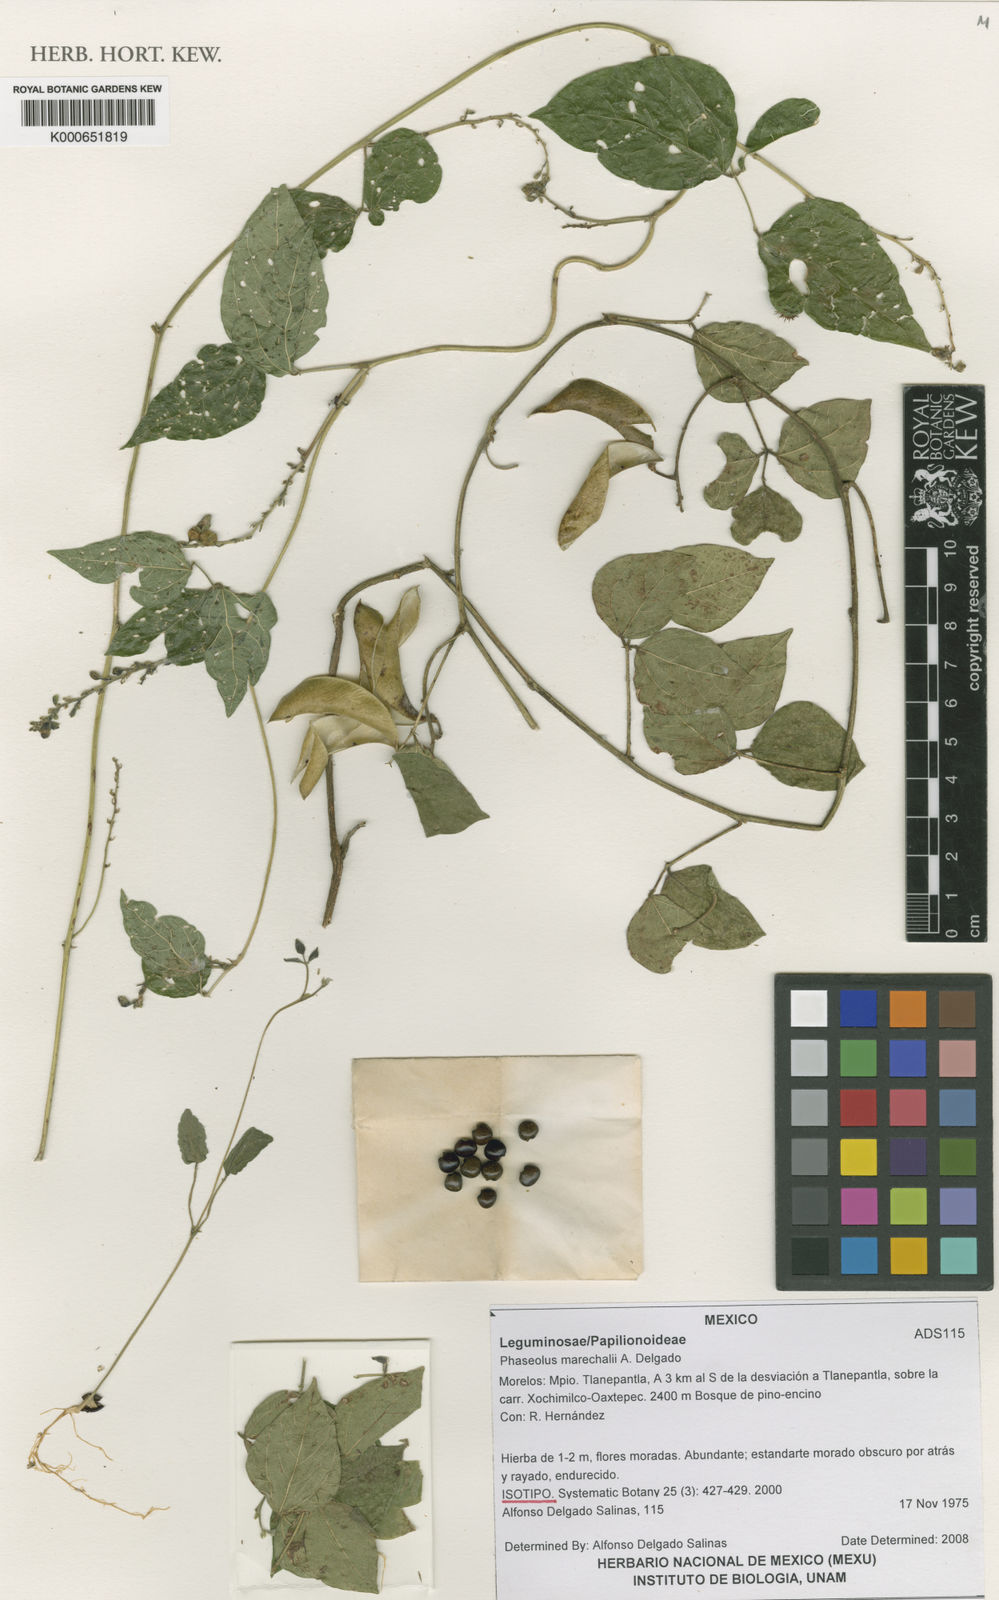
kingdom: Plantae
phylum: Tracheophyta
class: Magnoliopsida
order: Fabales
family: Fabaceae
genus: Phaseolus
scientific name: Phaseolus marechalii
